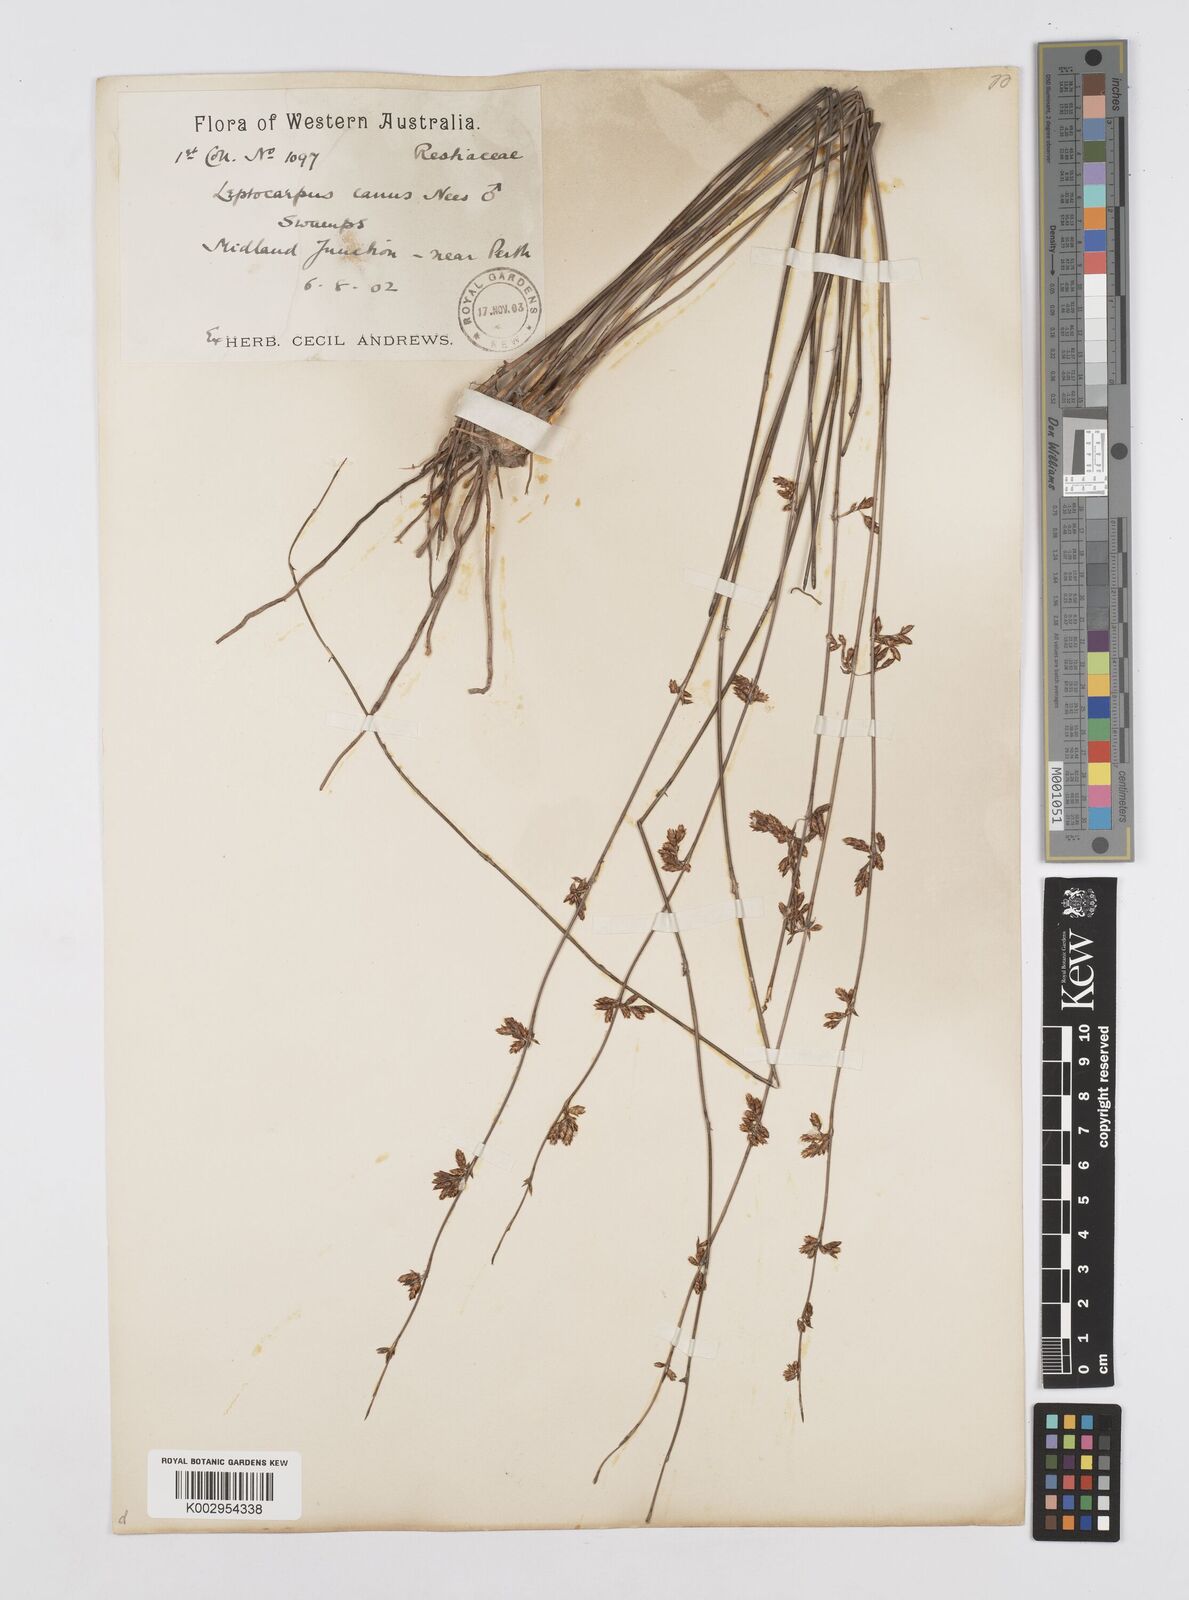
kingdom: Plantae
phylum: Tracheophyta
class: Liliopsida
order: Poales
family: Restionaceae
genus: Leptocarpus
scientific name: Leptocarpus canus
